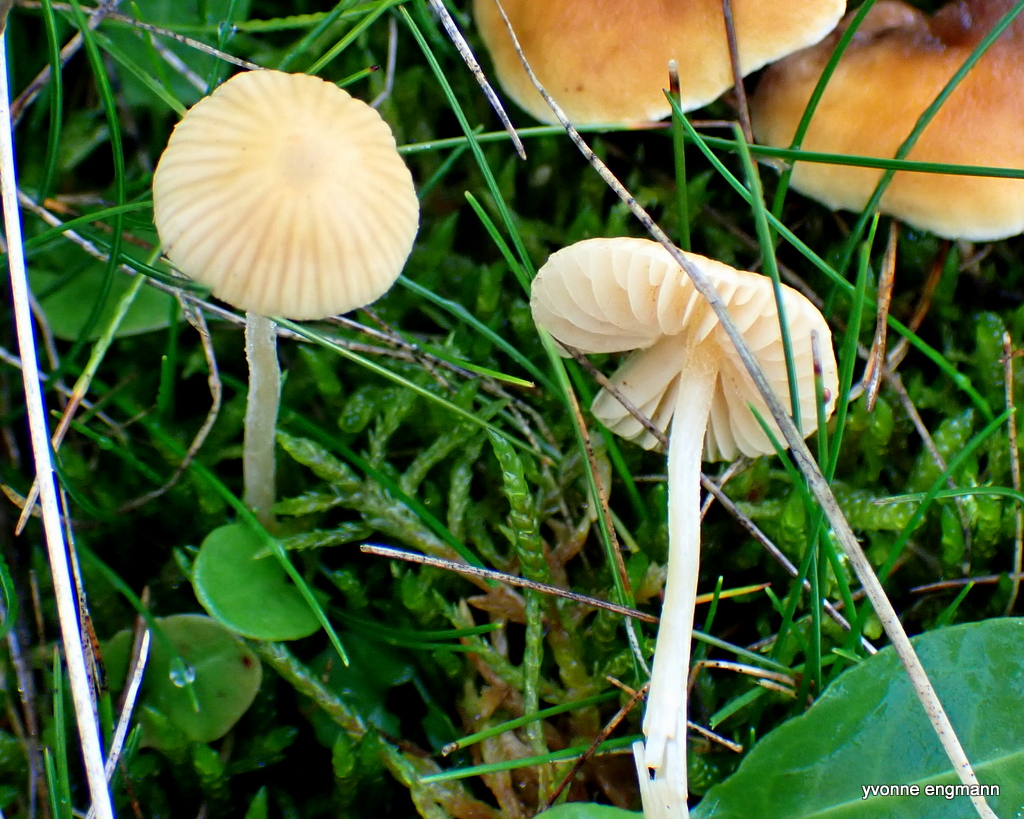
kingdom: Fungi
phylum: Basidiomycota
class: Agaricomycetes
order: Agaricales
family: Hymenogastraceae
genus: Galerina
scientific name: Galerina
